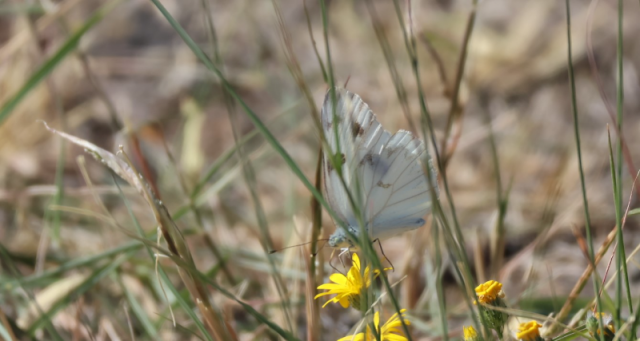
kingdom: Animalia
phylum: Arthropoda
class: Insecta
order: Lepidoptera
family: Pieridae
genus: Pontia
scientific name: Pontia protodice
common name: Checkered White
